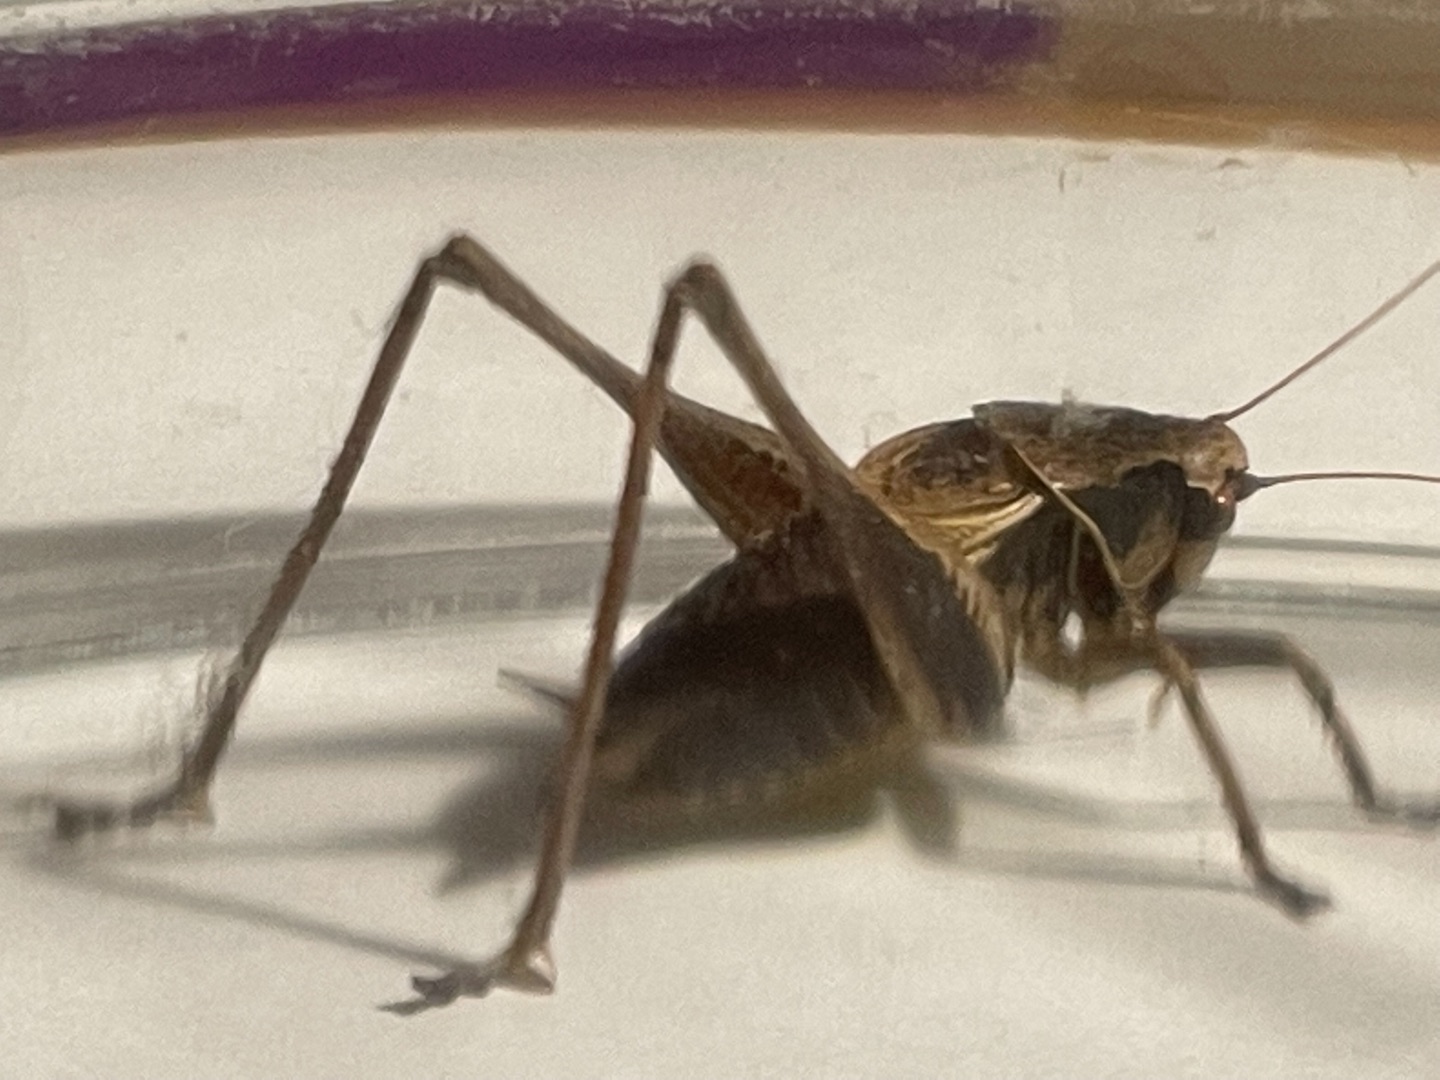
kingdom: Animalia
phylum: Arthropoda
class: Insecta
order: Orthoptera
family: Tettigoniidae
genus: Pholidoptera
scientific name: Pholidoptera griseoaptera
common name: Buskgræshoppe
